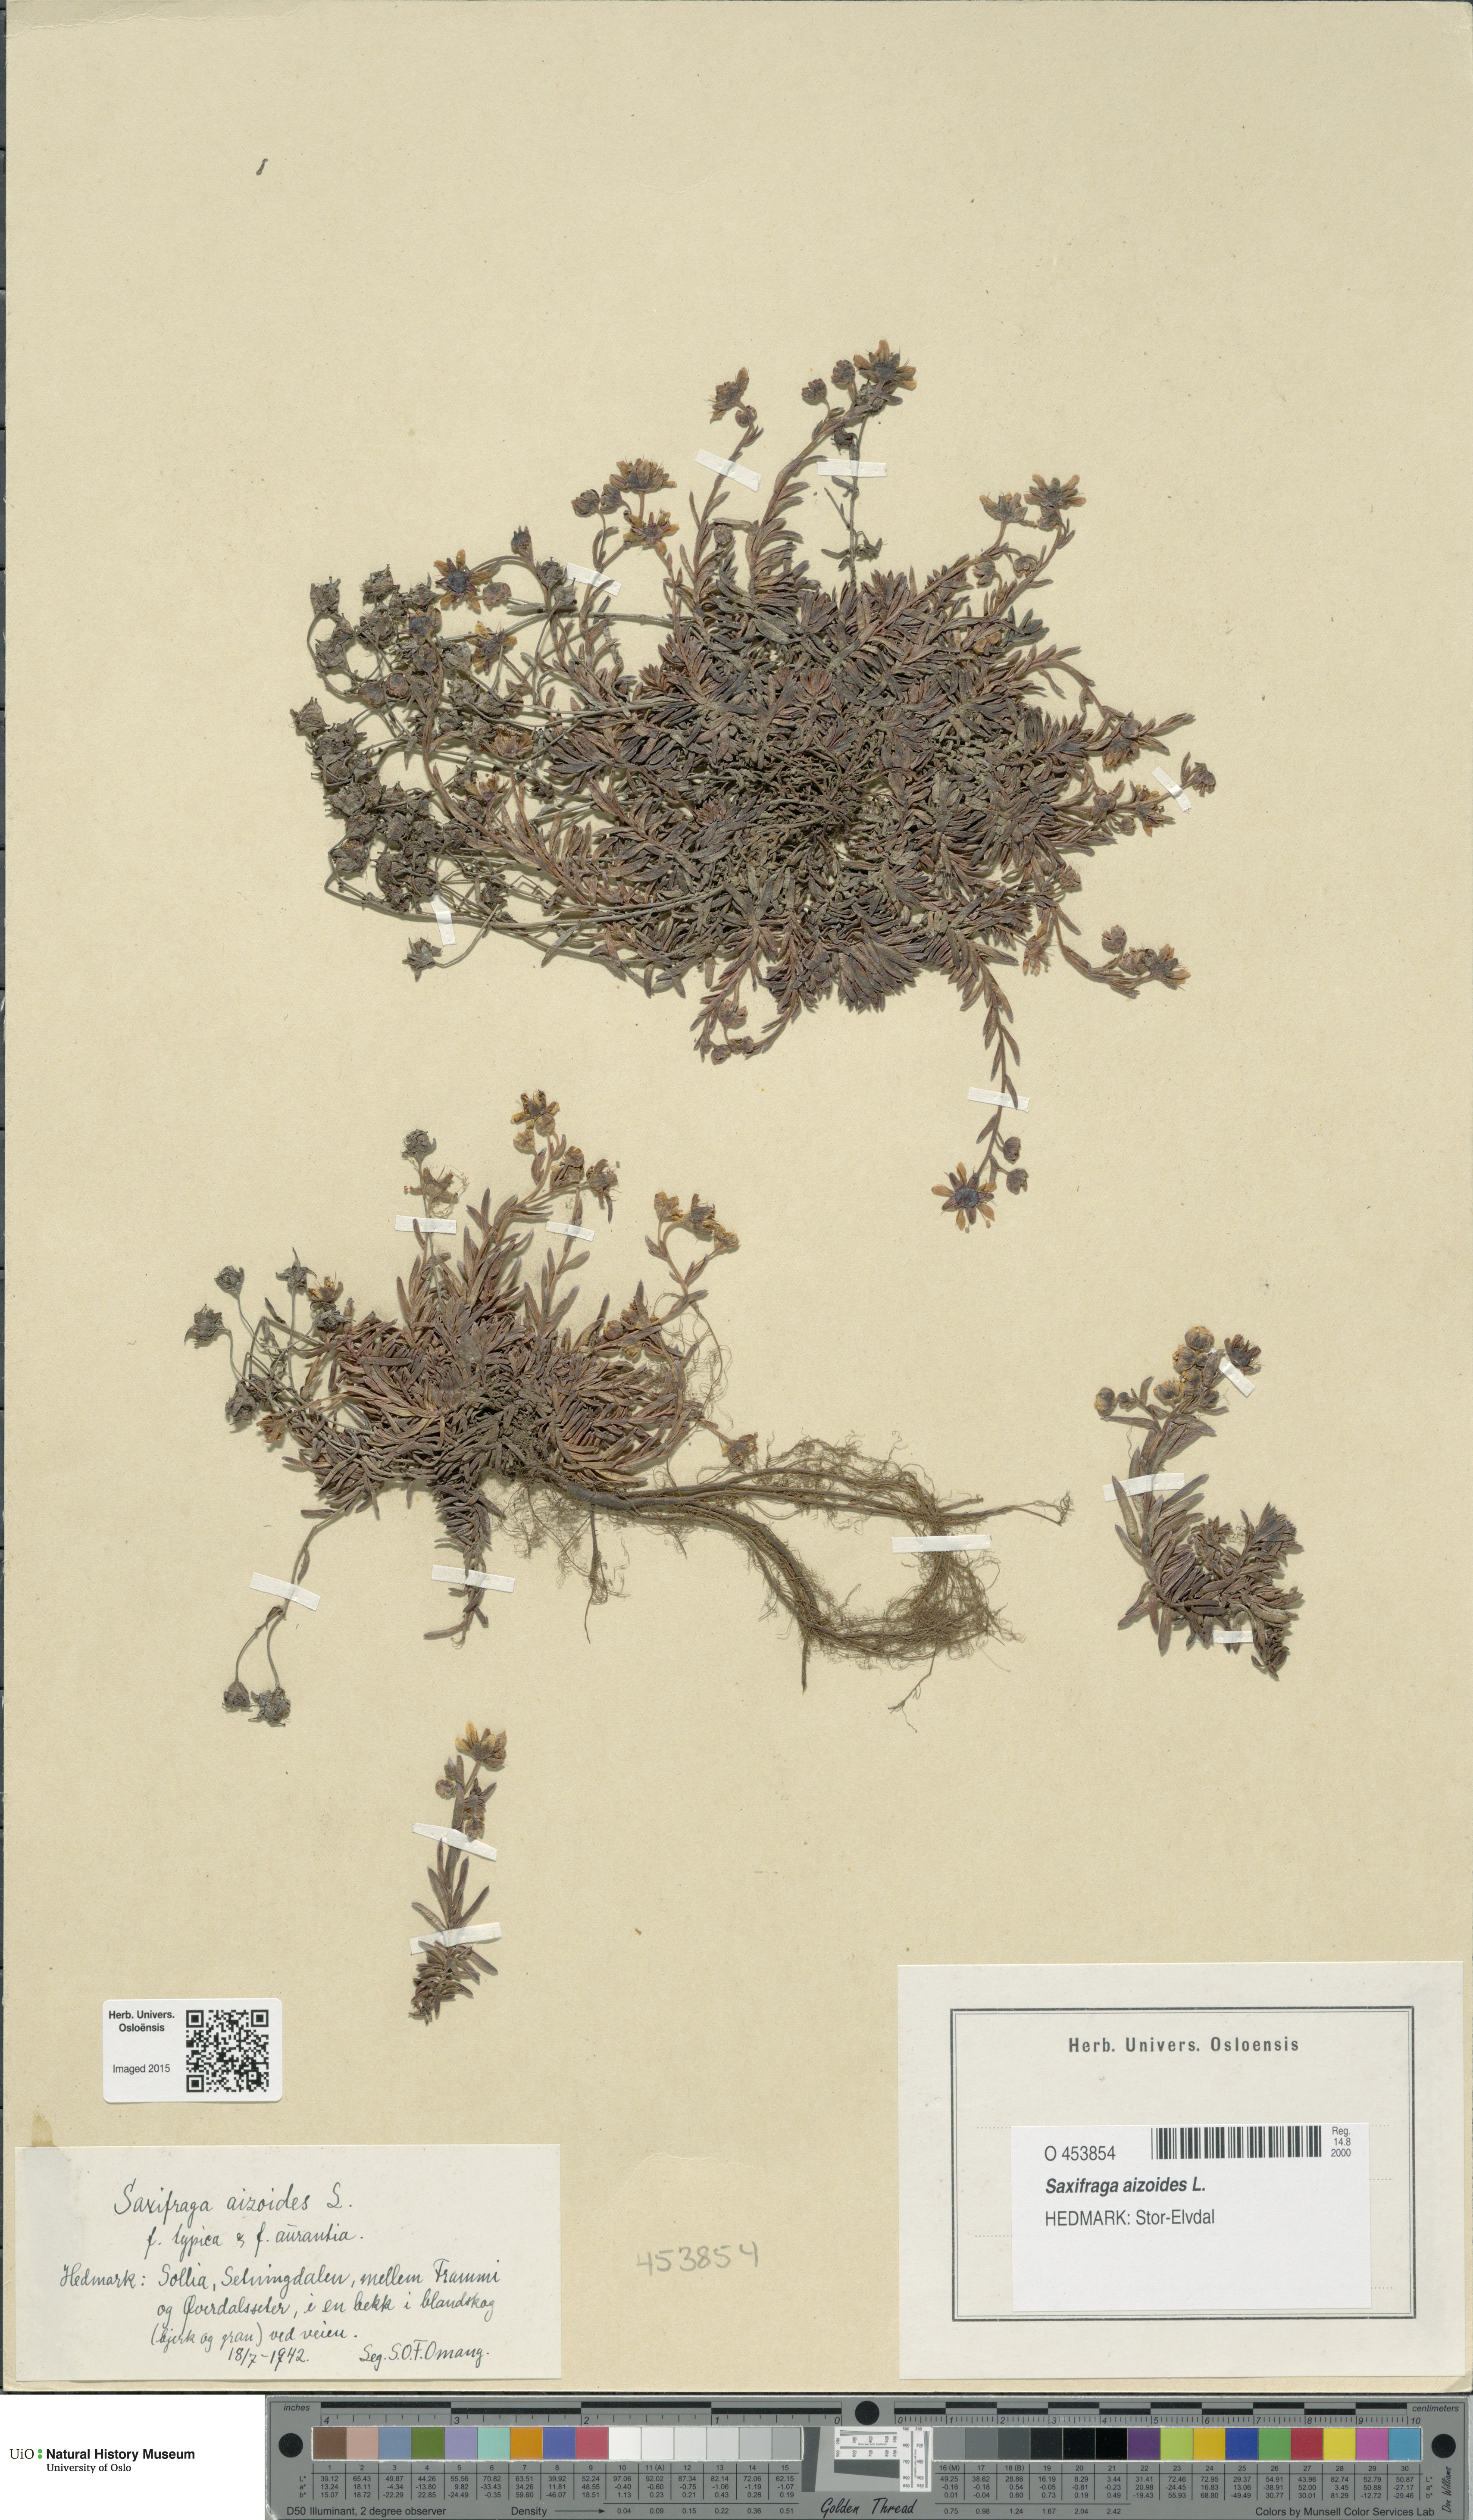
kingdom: Plantae
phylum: Tracheophyta
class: Magnoliopsida
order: Saxifragales
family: Saxifragaceae
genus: Saxifraga
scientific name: Saxifraga aizoides
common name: Yellow mountain saxifrage
